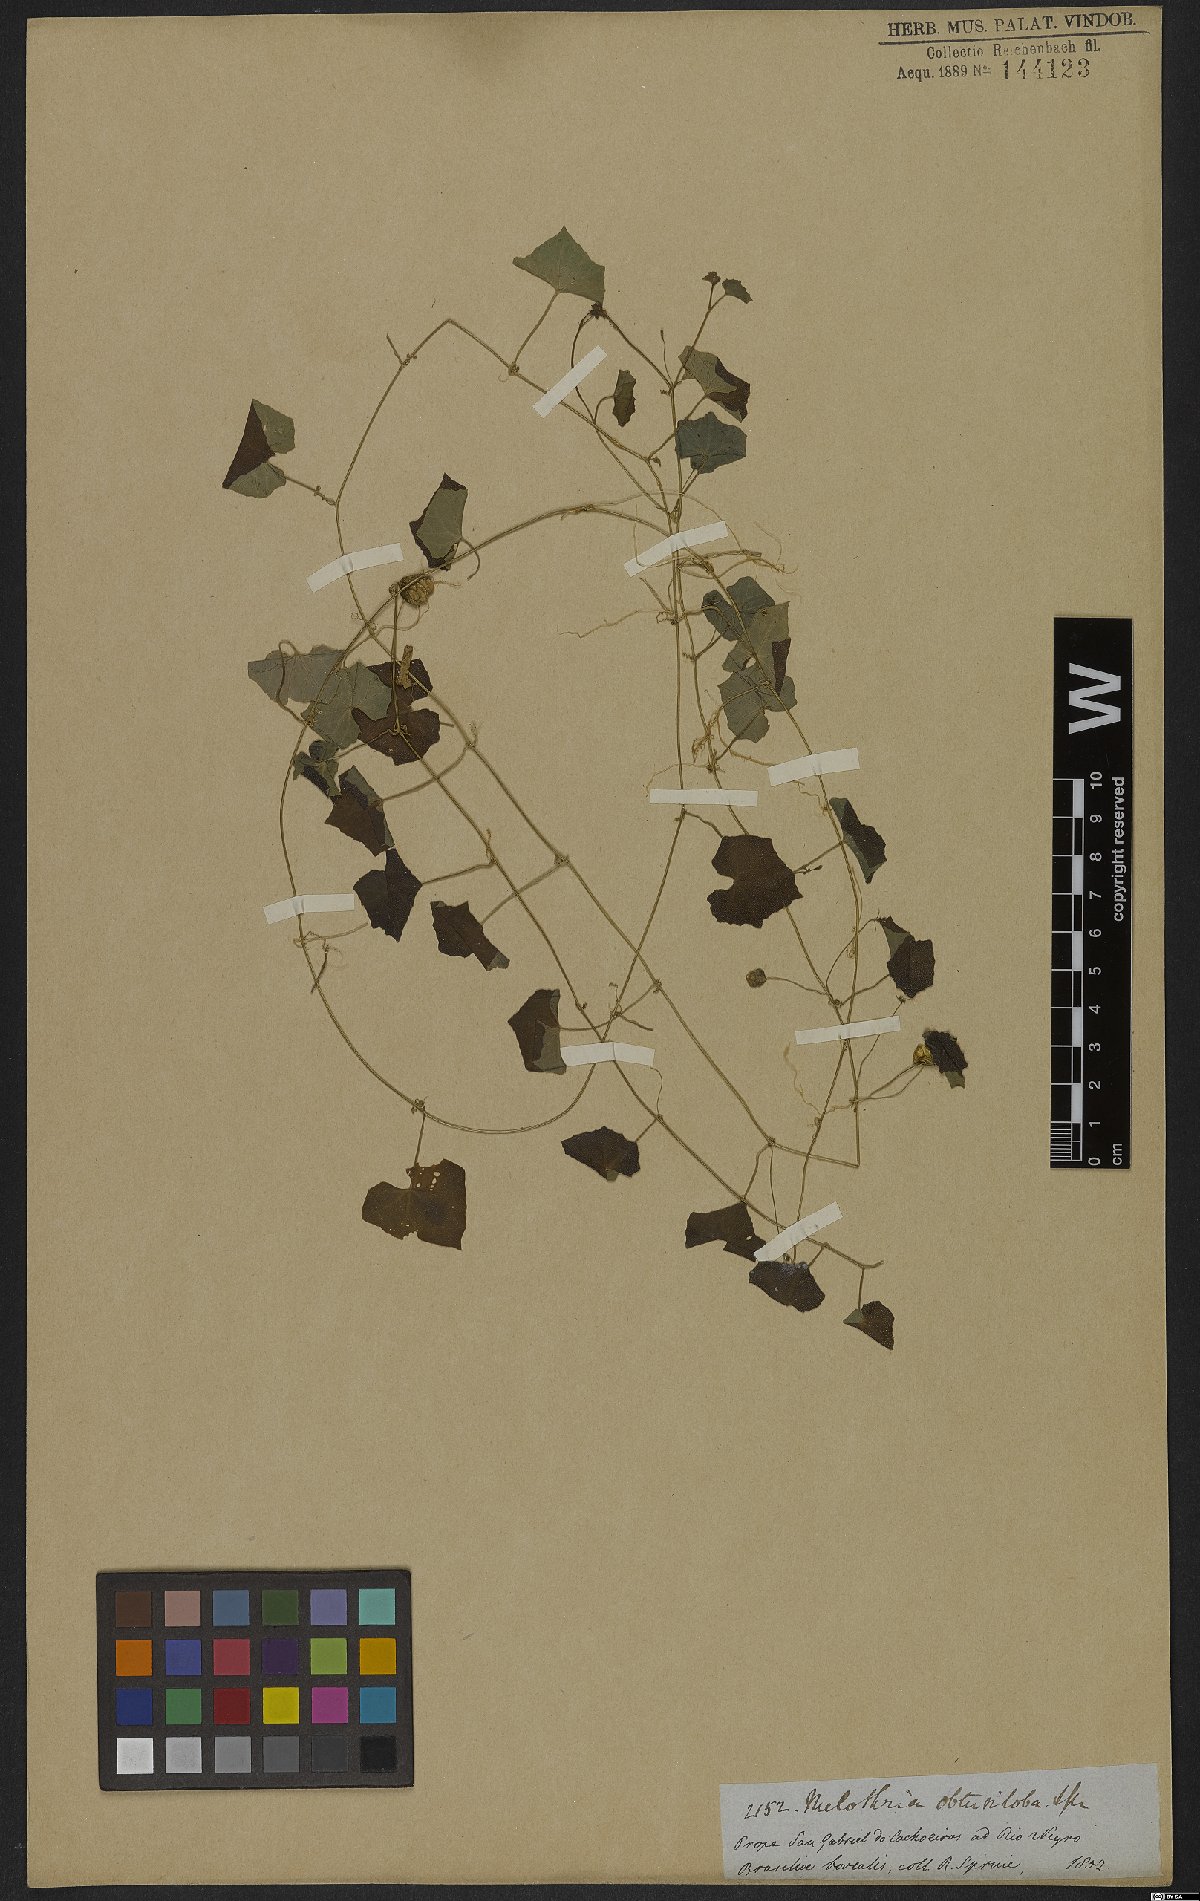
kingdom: Plantae
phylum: Tracheophyta
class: Magnoliopsida
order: Cucurbitales
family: Cucurbitaceae
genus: Kedrostis
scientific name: Kedrostis foetidissima
